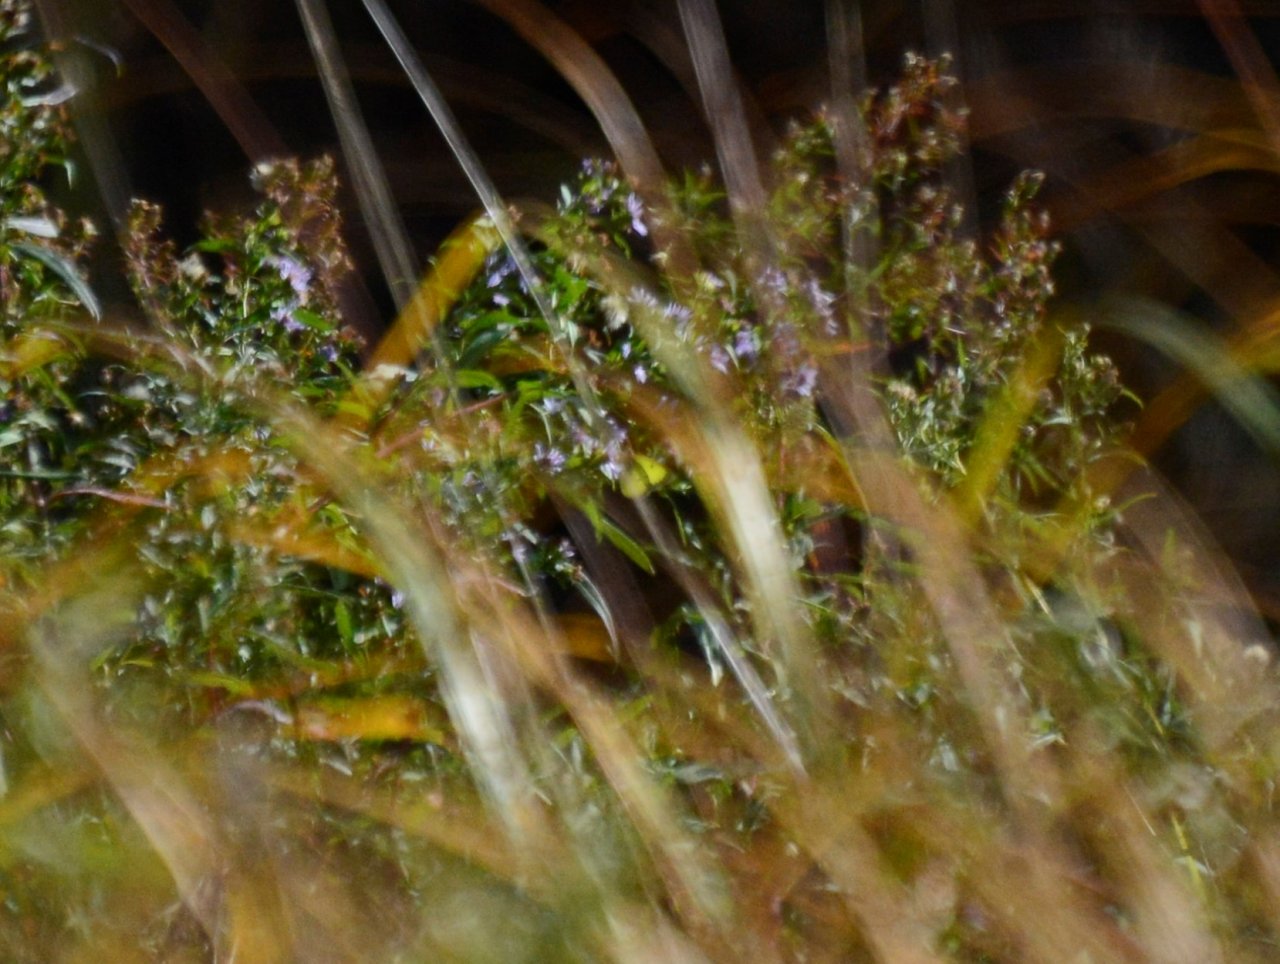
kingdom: Animalia
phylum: Arthropoda
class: Insecta
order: Lepidoptera
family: Pieridae
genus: Colias
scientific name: Colias philodice
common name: Clouded Sulphur
